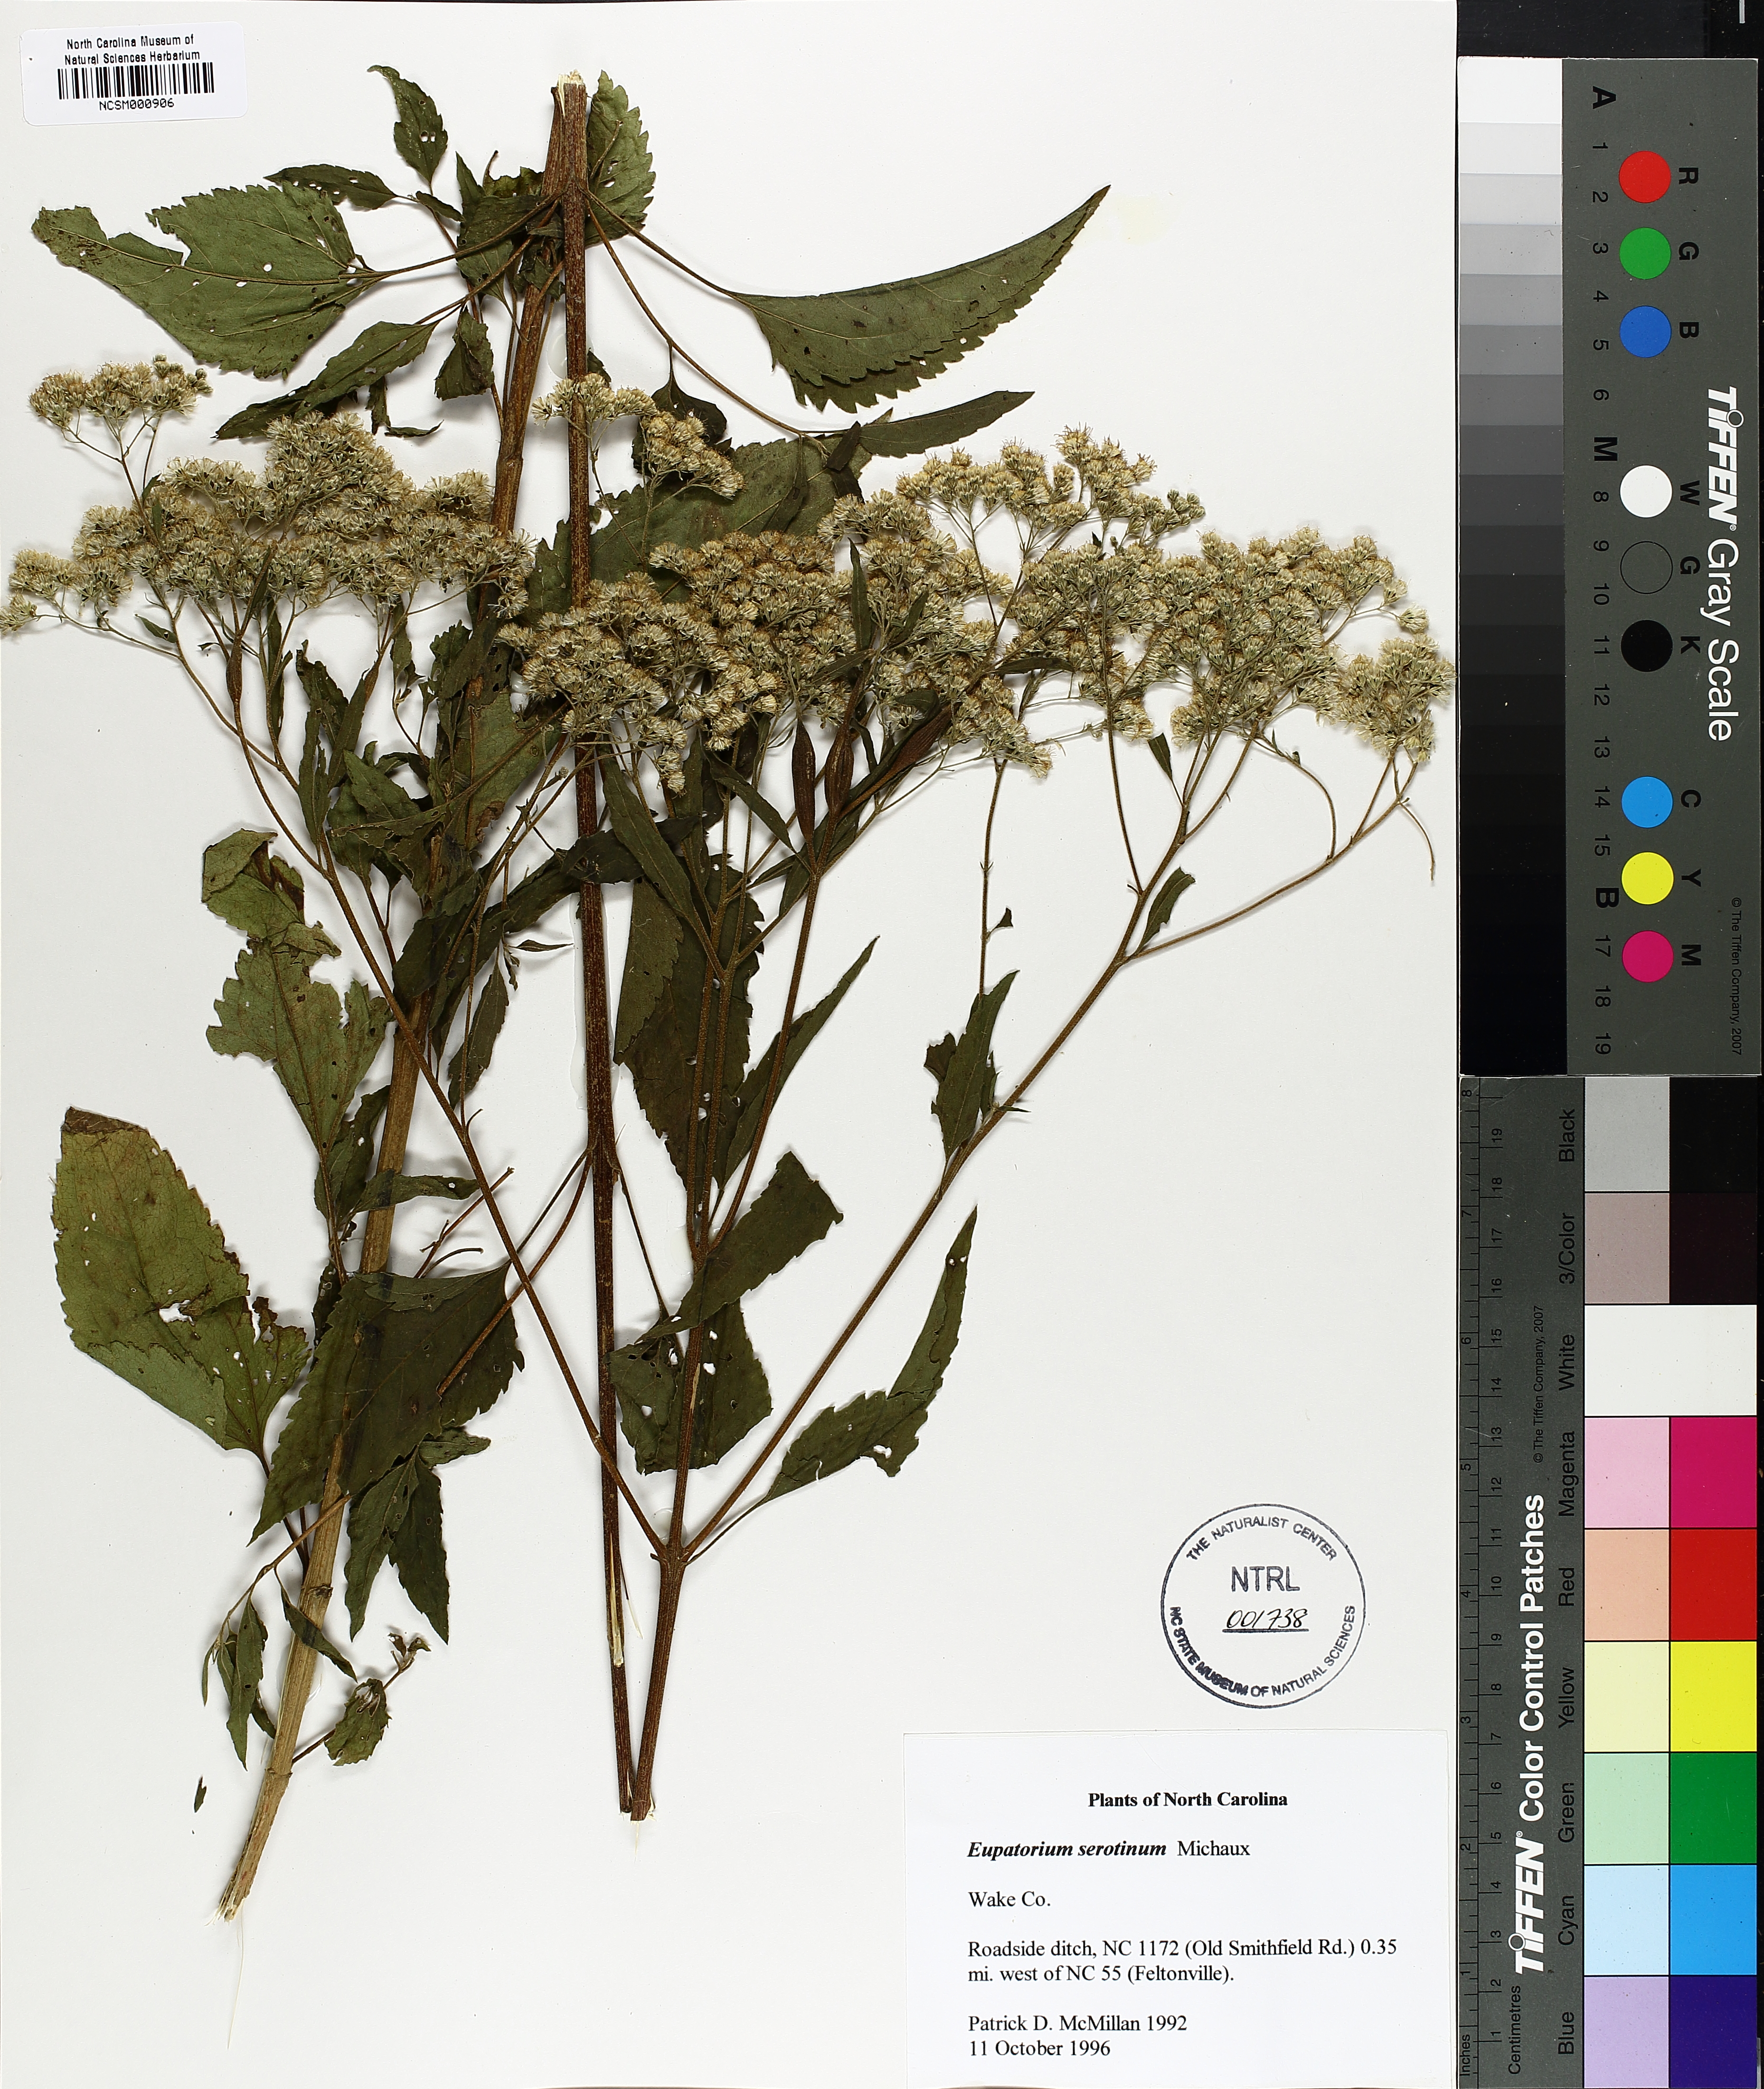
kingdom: Plantae
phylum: Tracheophyta
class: Magnoliopsida
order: Asterales
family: Asteraceae
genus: Eupatorium
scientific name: Eupatorium serotinum
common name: Late boneset
